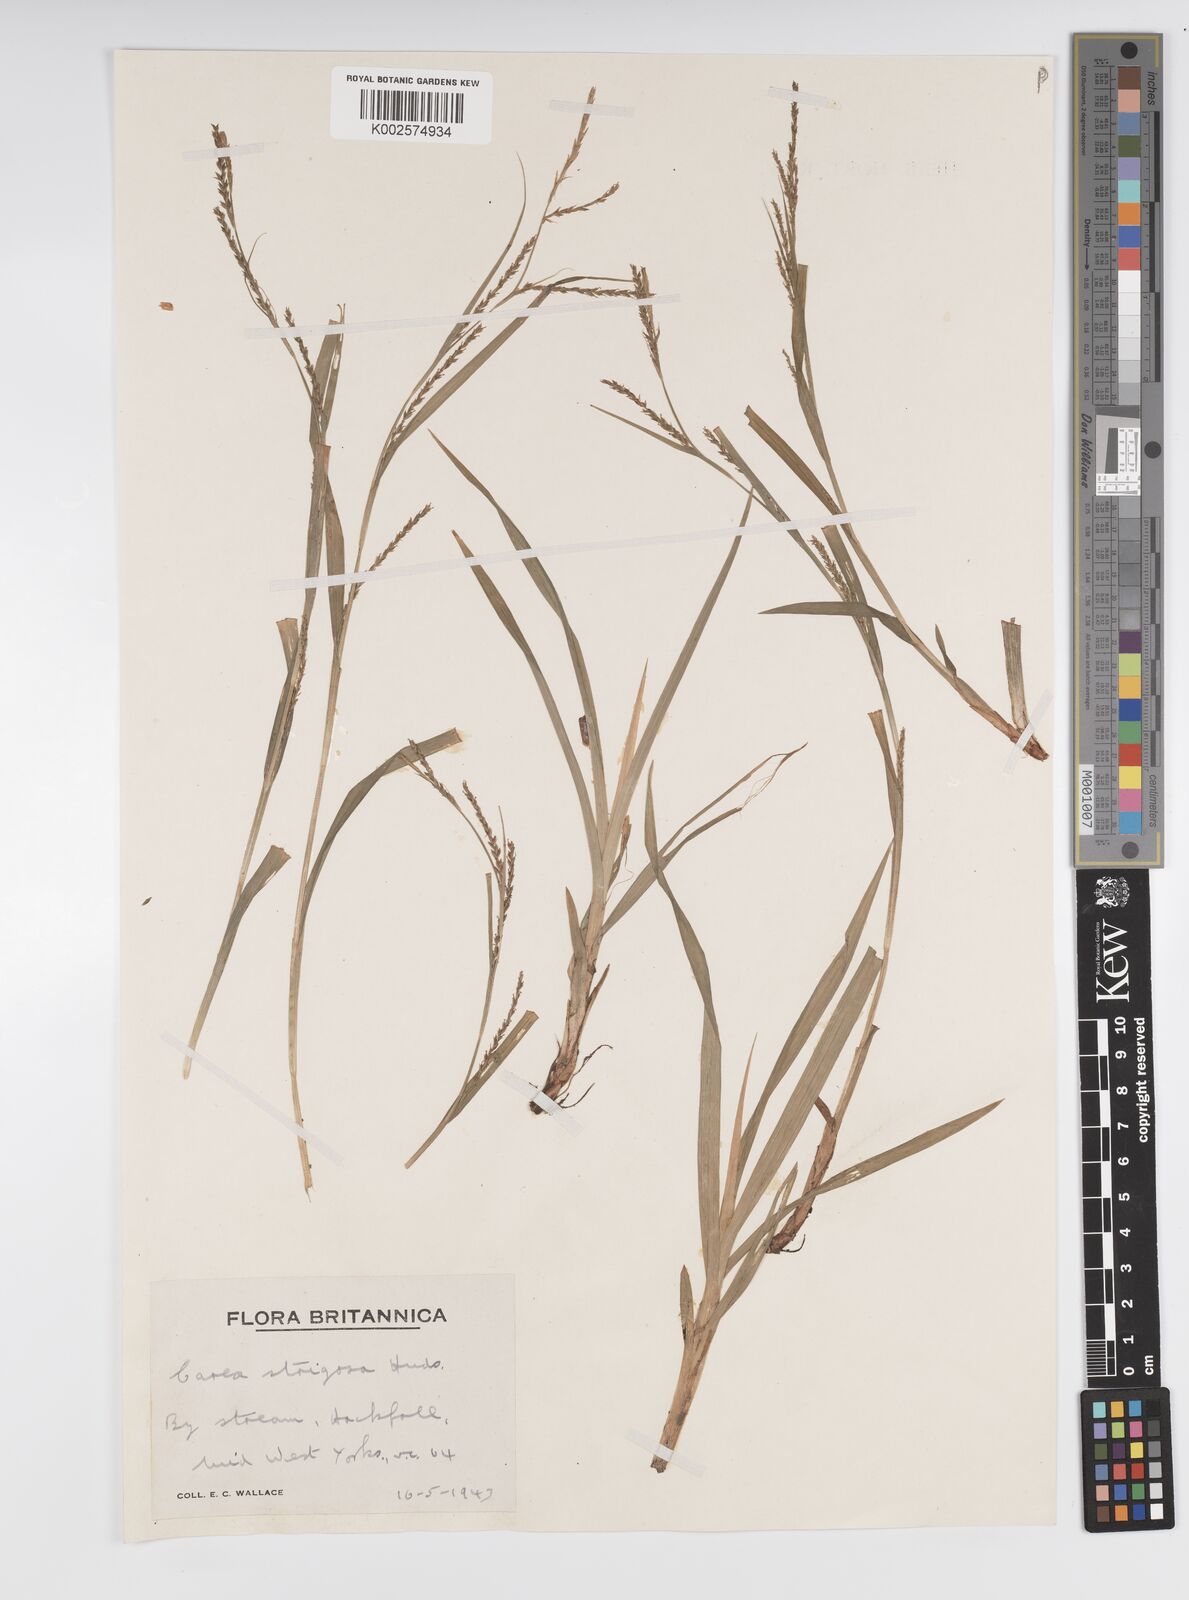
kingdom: Plantae
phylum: Tracheophyta
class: Liliopsida
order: Poales
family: Cyperaceae
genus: Carex
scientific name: Carex strigosa
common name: Thin-spiked wood-sedge
